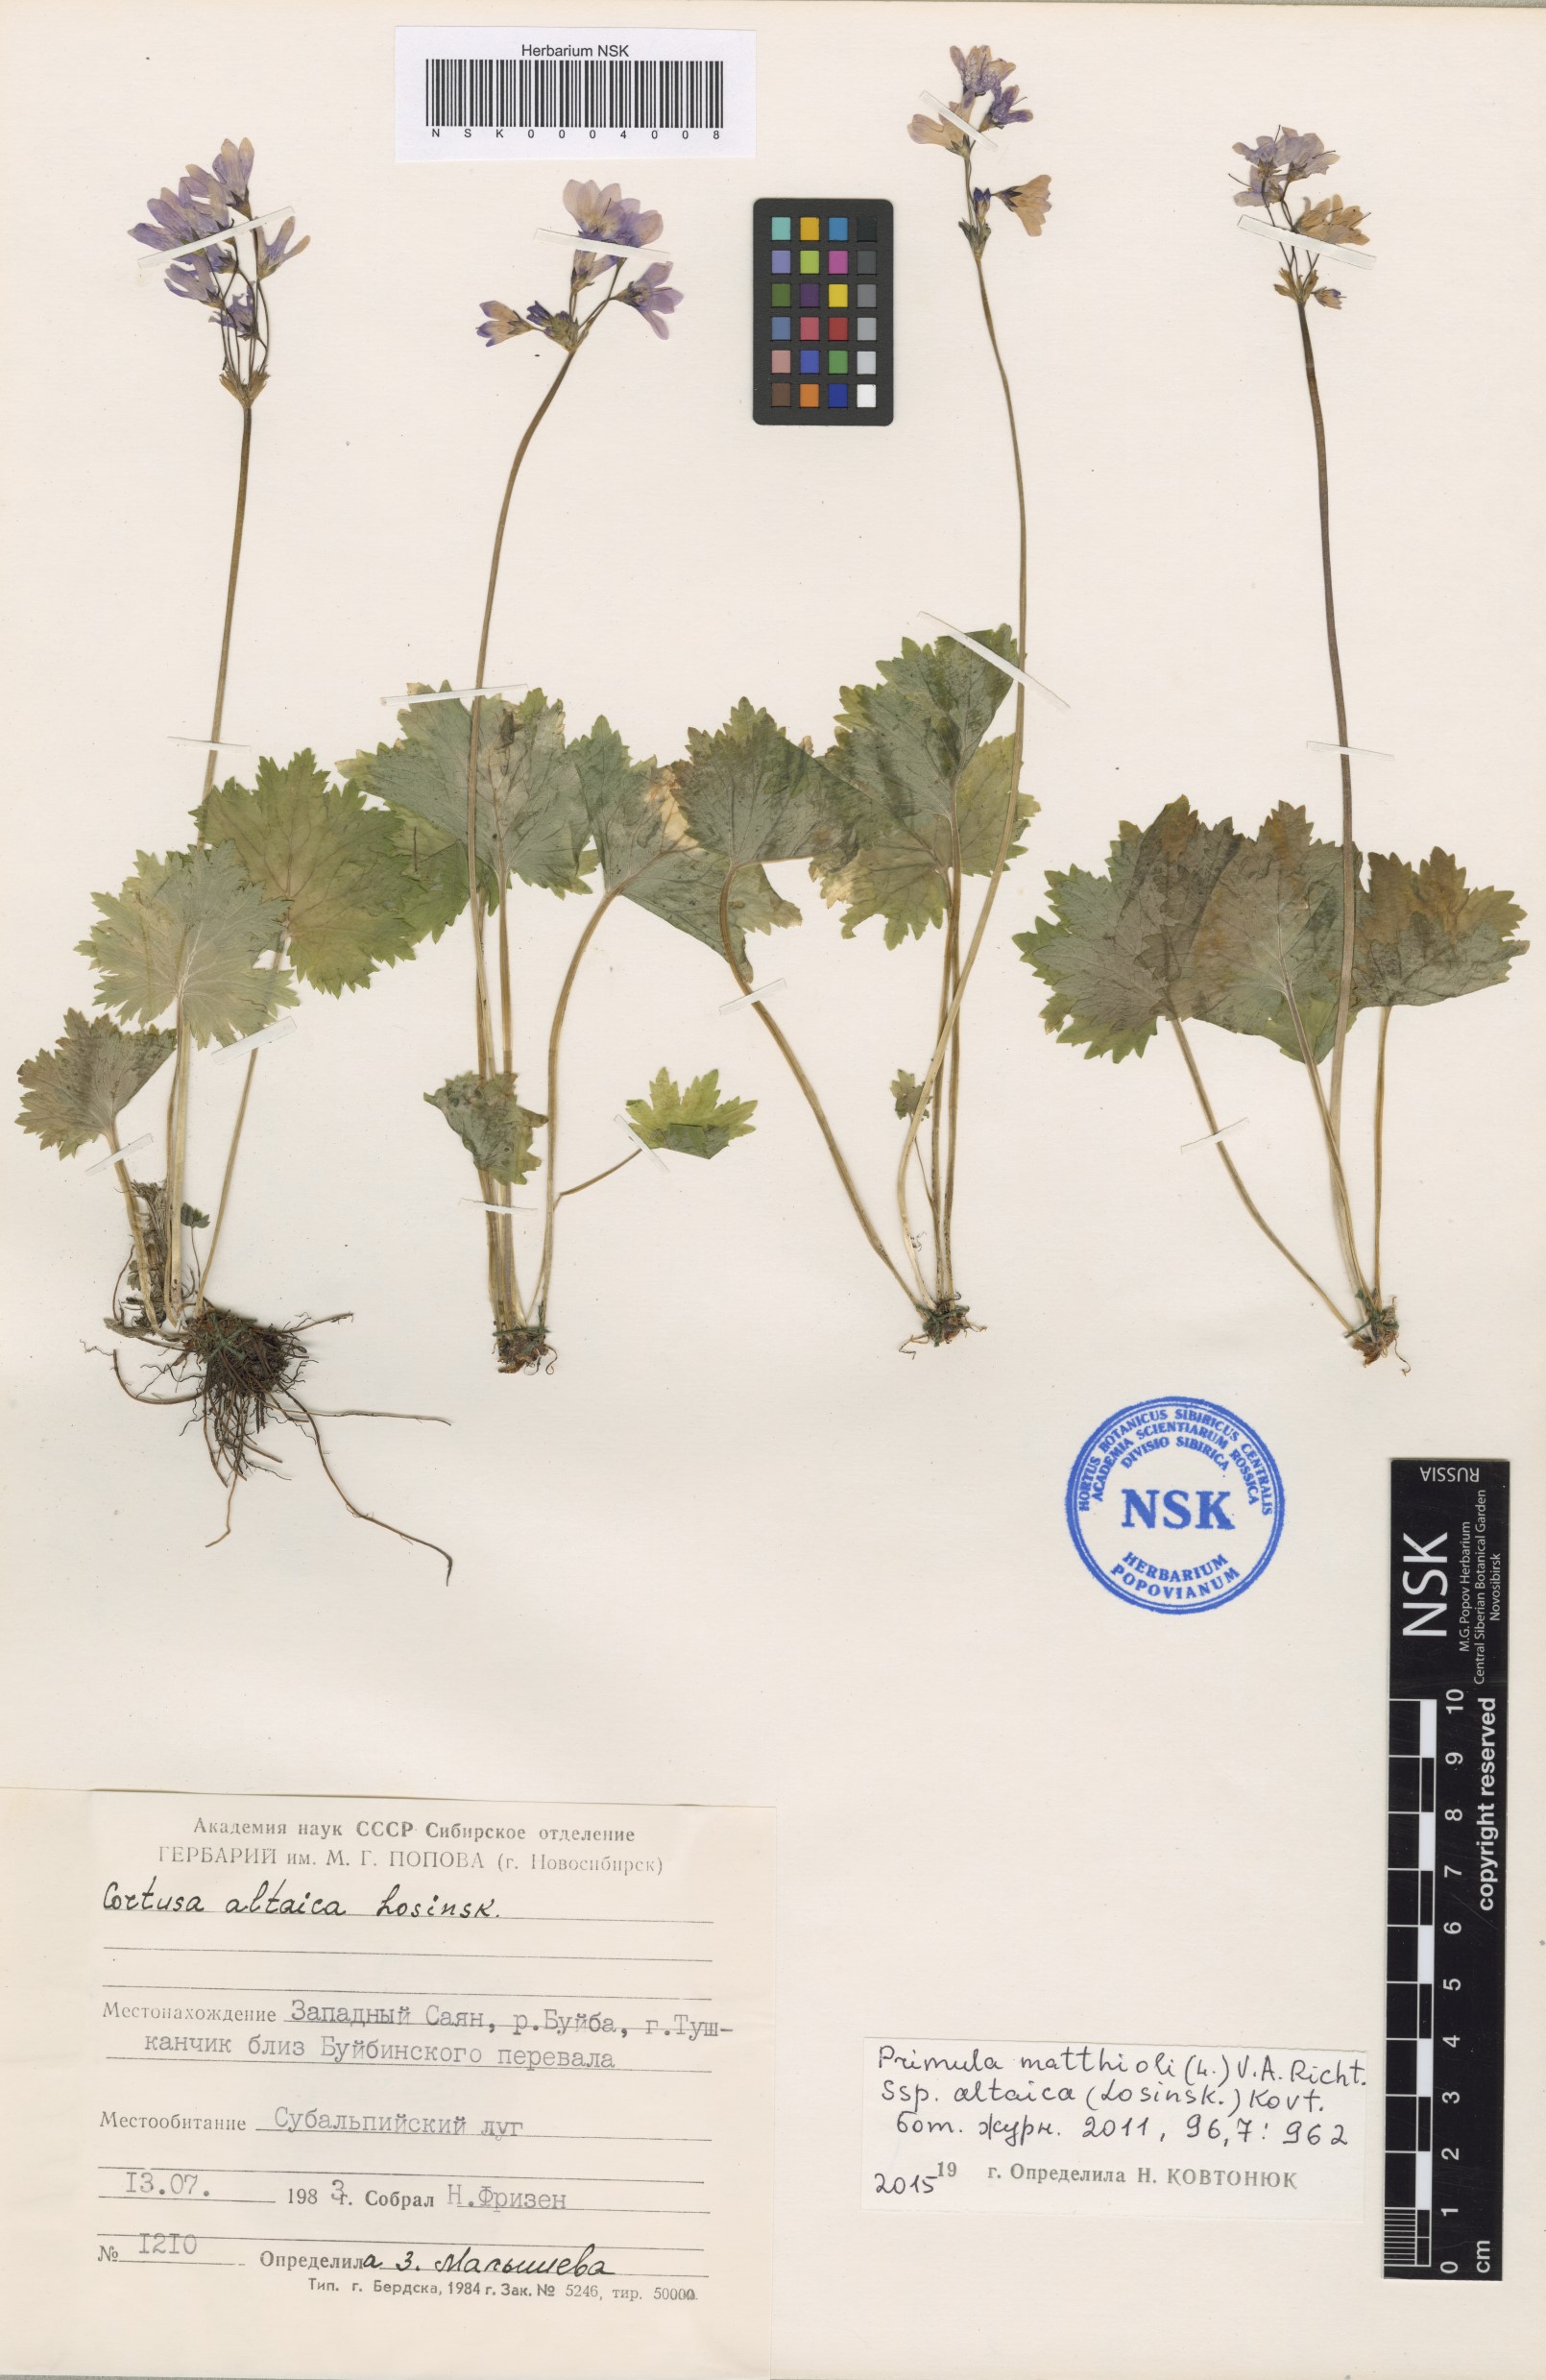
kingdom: Plantae
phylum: Tracheophyta
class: Magnoliopsida
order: Ericales
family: Primulaceae
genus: Primula
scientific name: Primula matthioli
